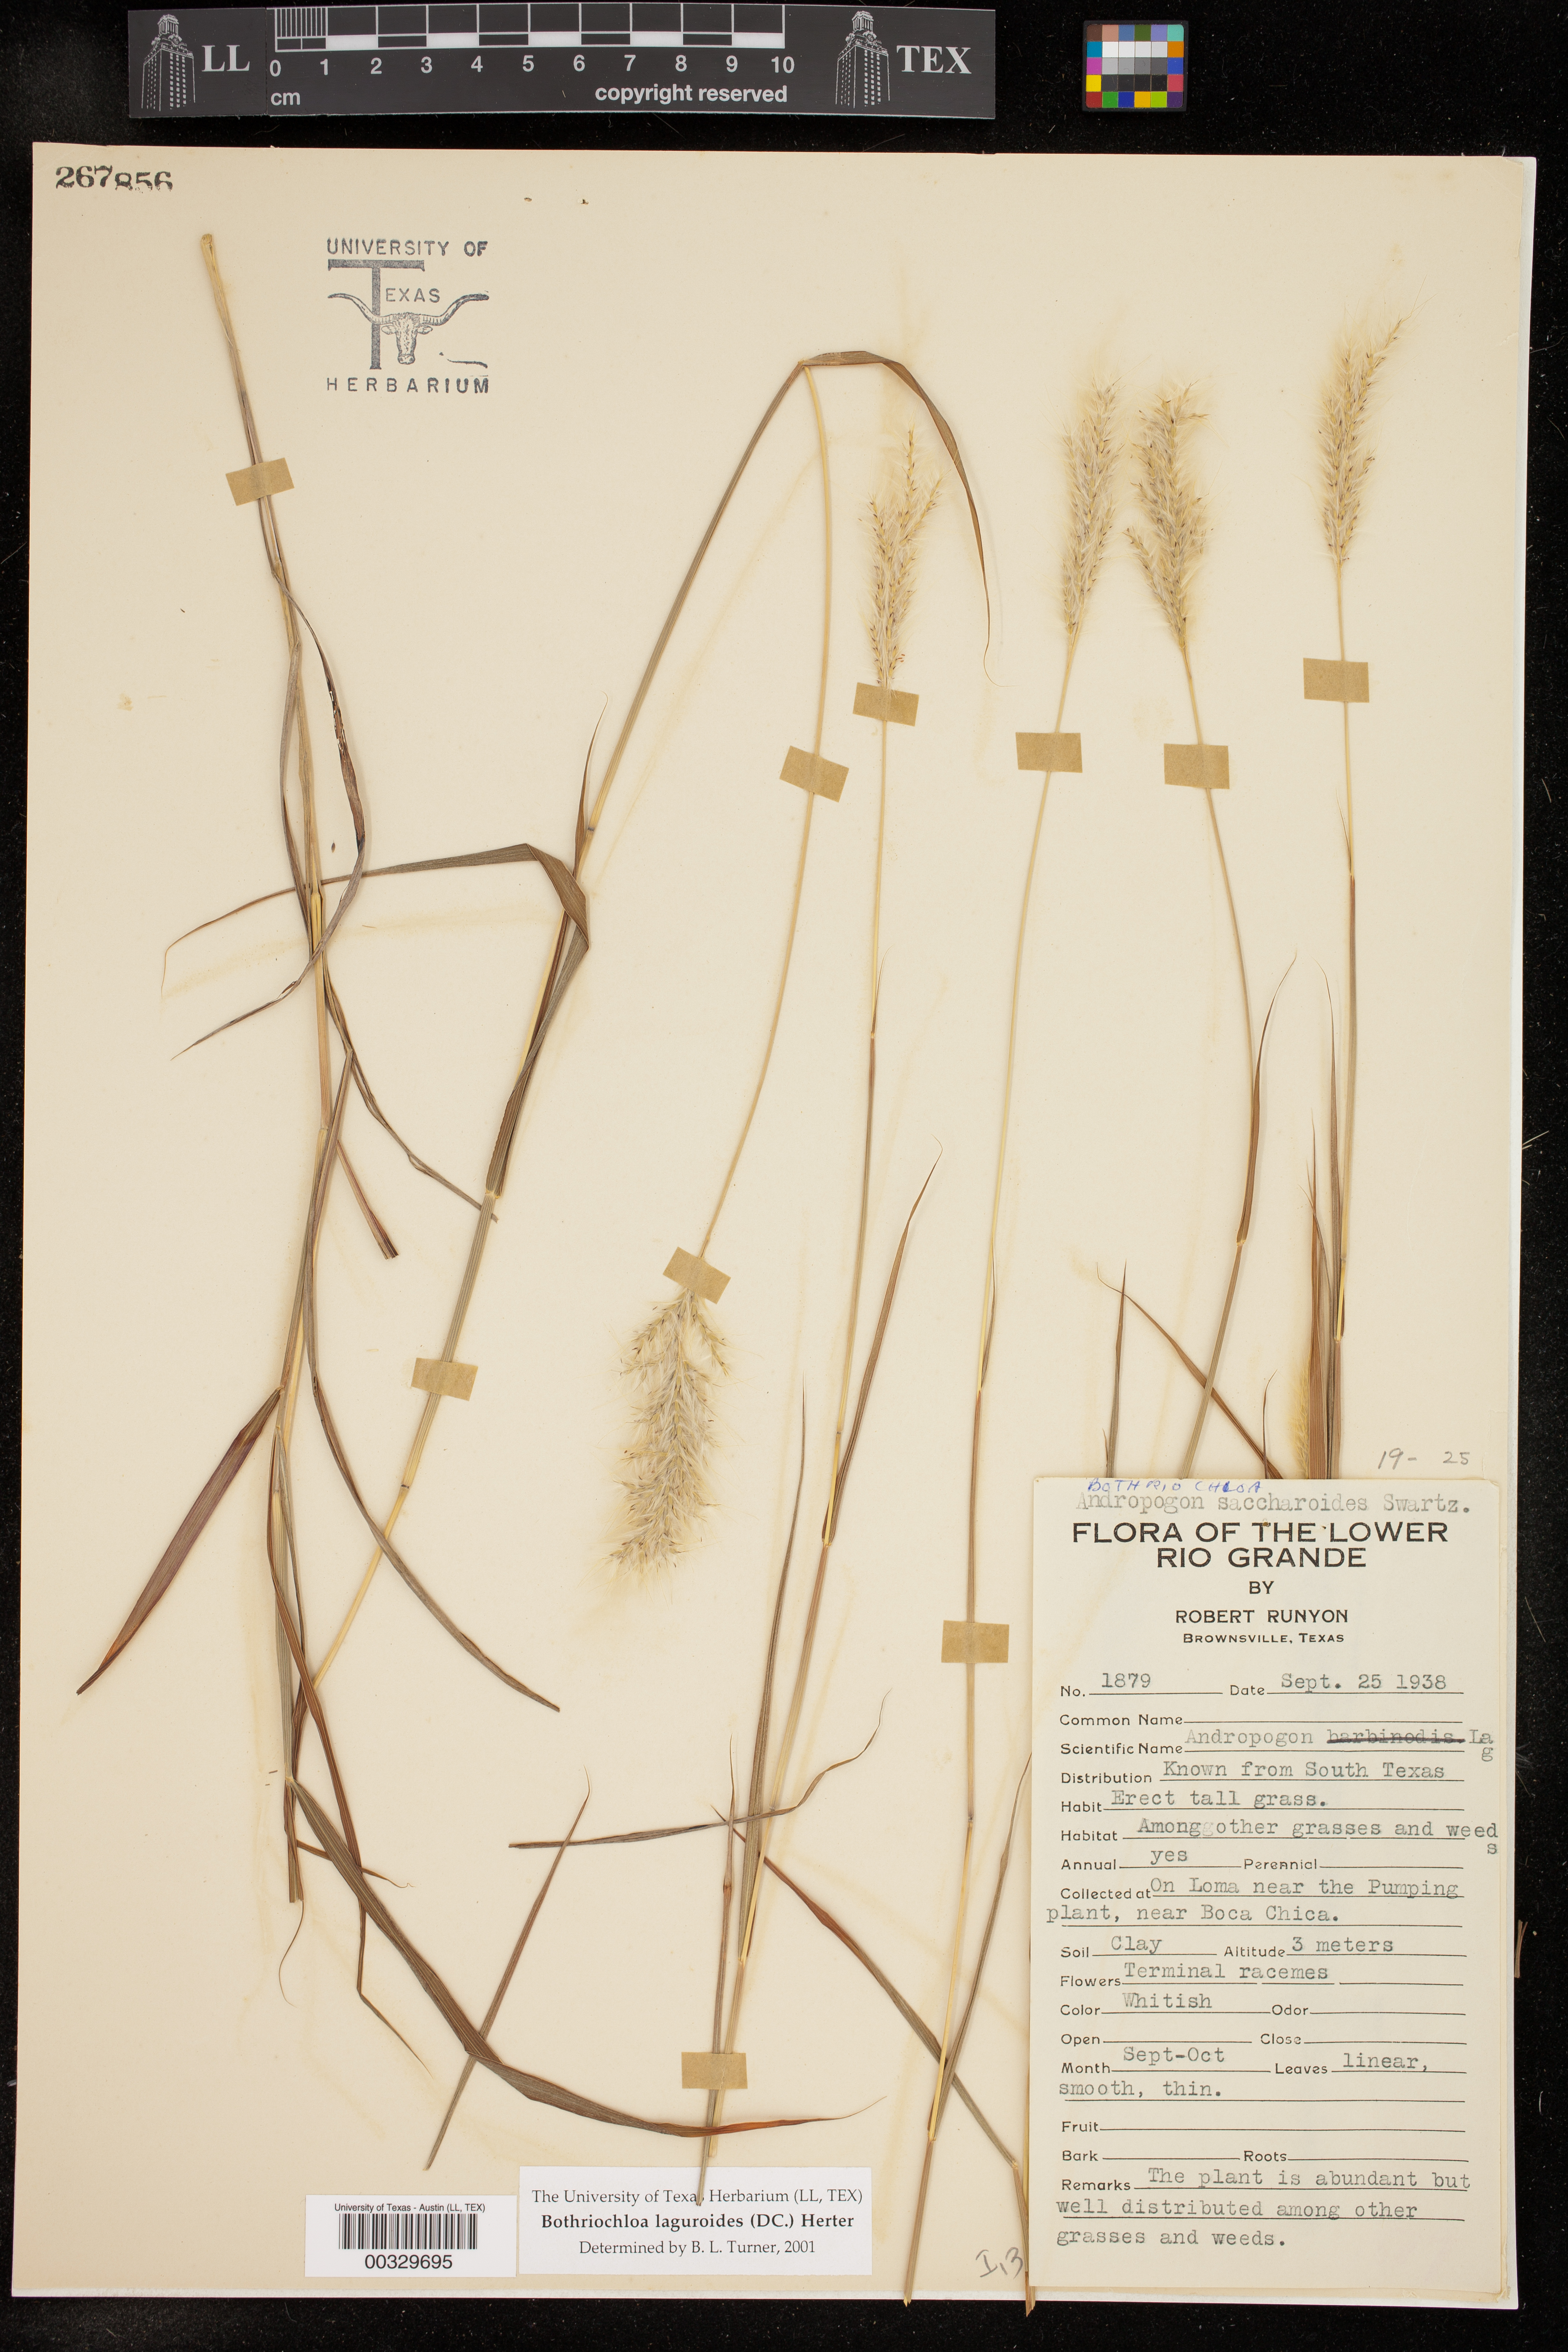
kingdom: Plantae
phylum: Tracheophyta
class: Liliopsida
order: Poales
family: Poaceae
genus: Bothriochloa
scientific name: Bothriochloa laguroides
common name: Silver bluestem
